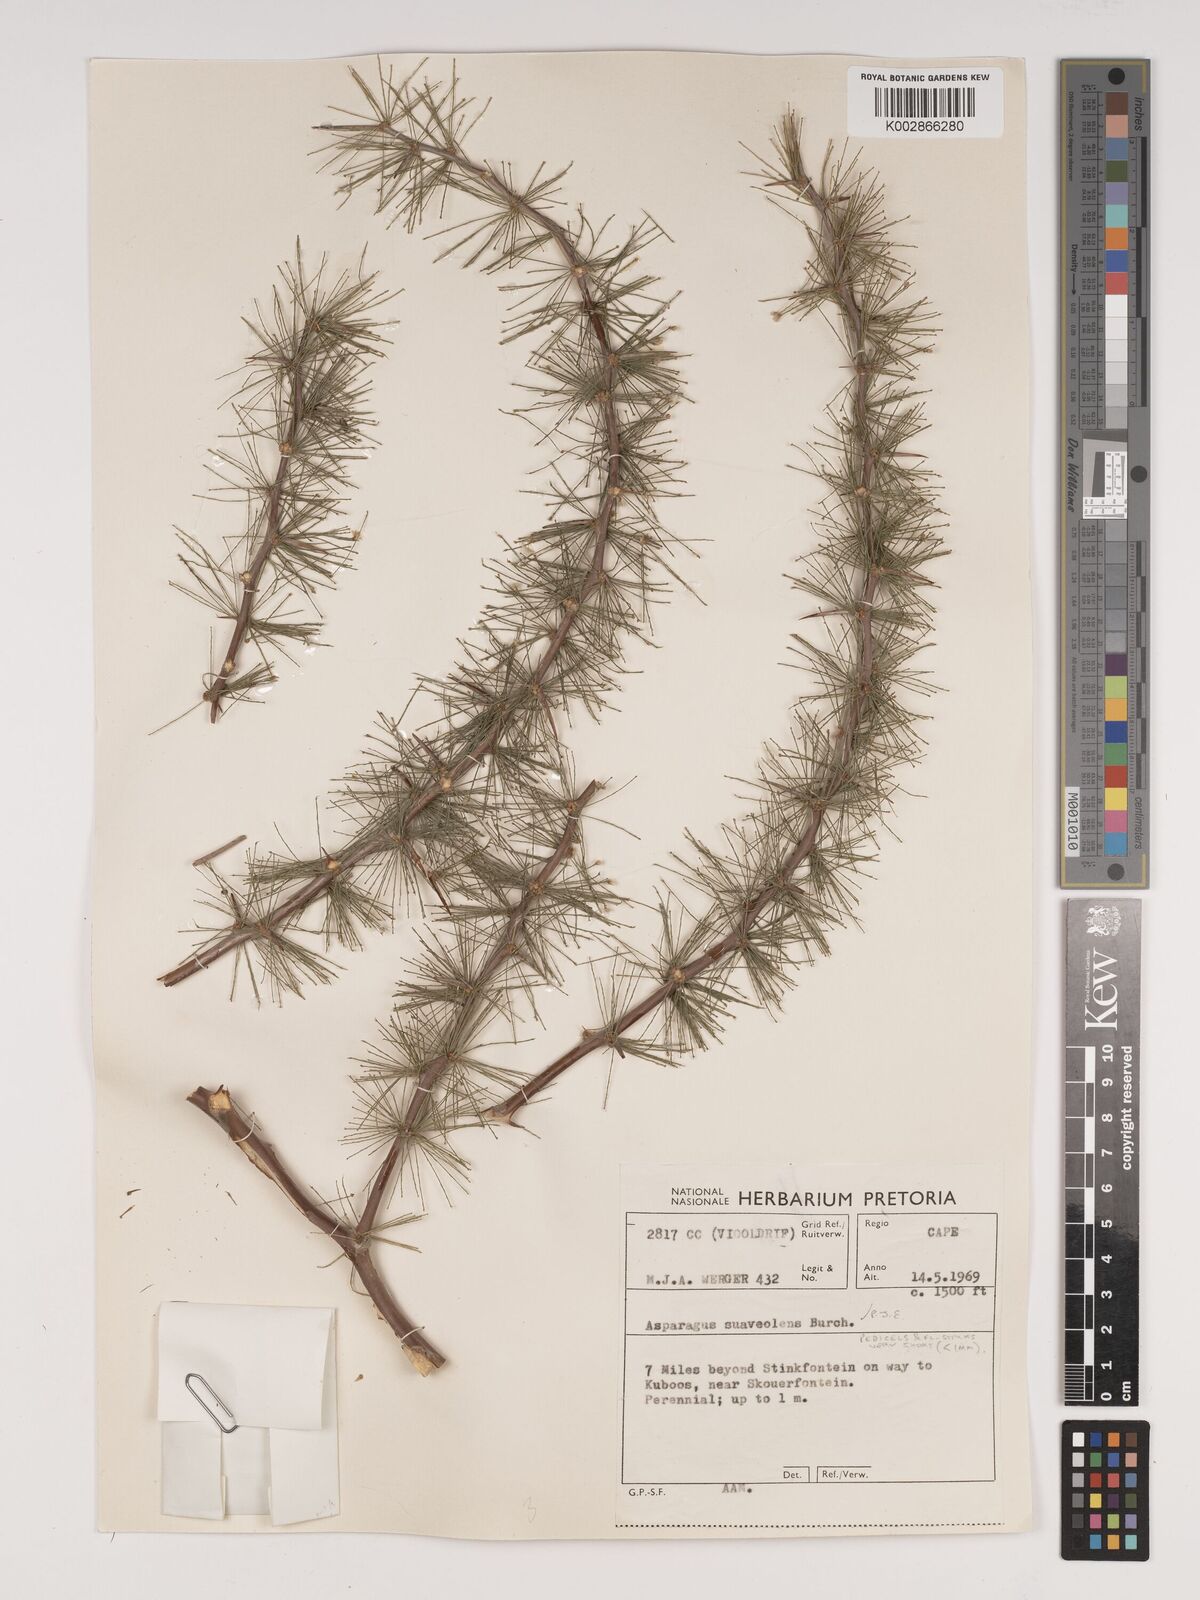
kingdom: Plantae
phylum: Tracheophyta
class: Liliopsida
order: Asparagales
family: Asparagaceae
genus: Asparagus
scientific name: Asparagus suaveolens
